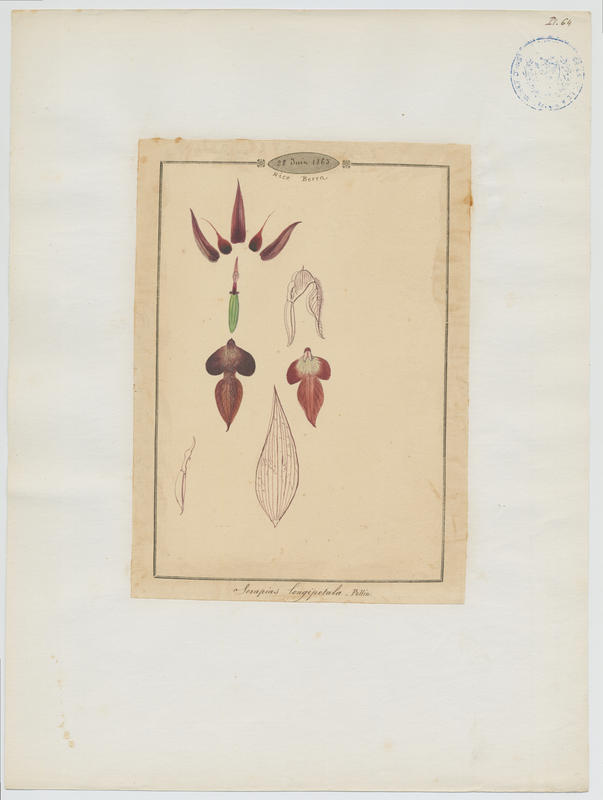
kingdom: Plantae
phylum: Tracheophyta
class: Liliopsida
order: Asparagales
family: Orchidaceae
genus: Serapias
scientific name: Serapias vomeracea
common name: Long-lipped tongue-orchid
